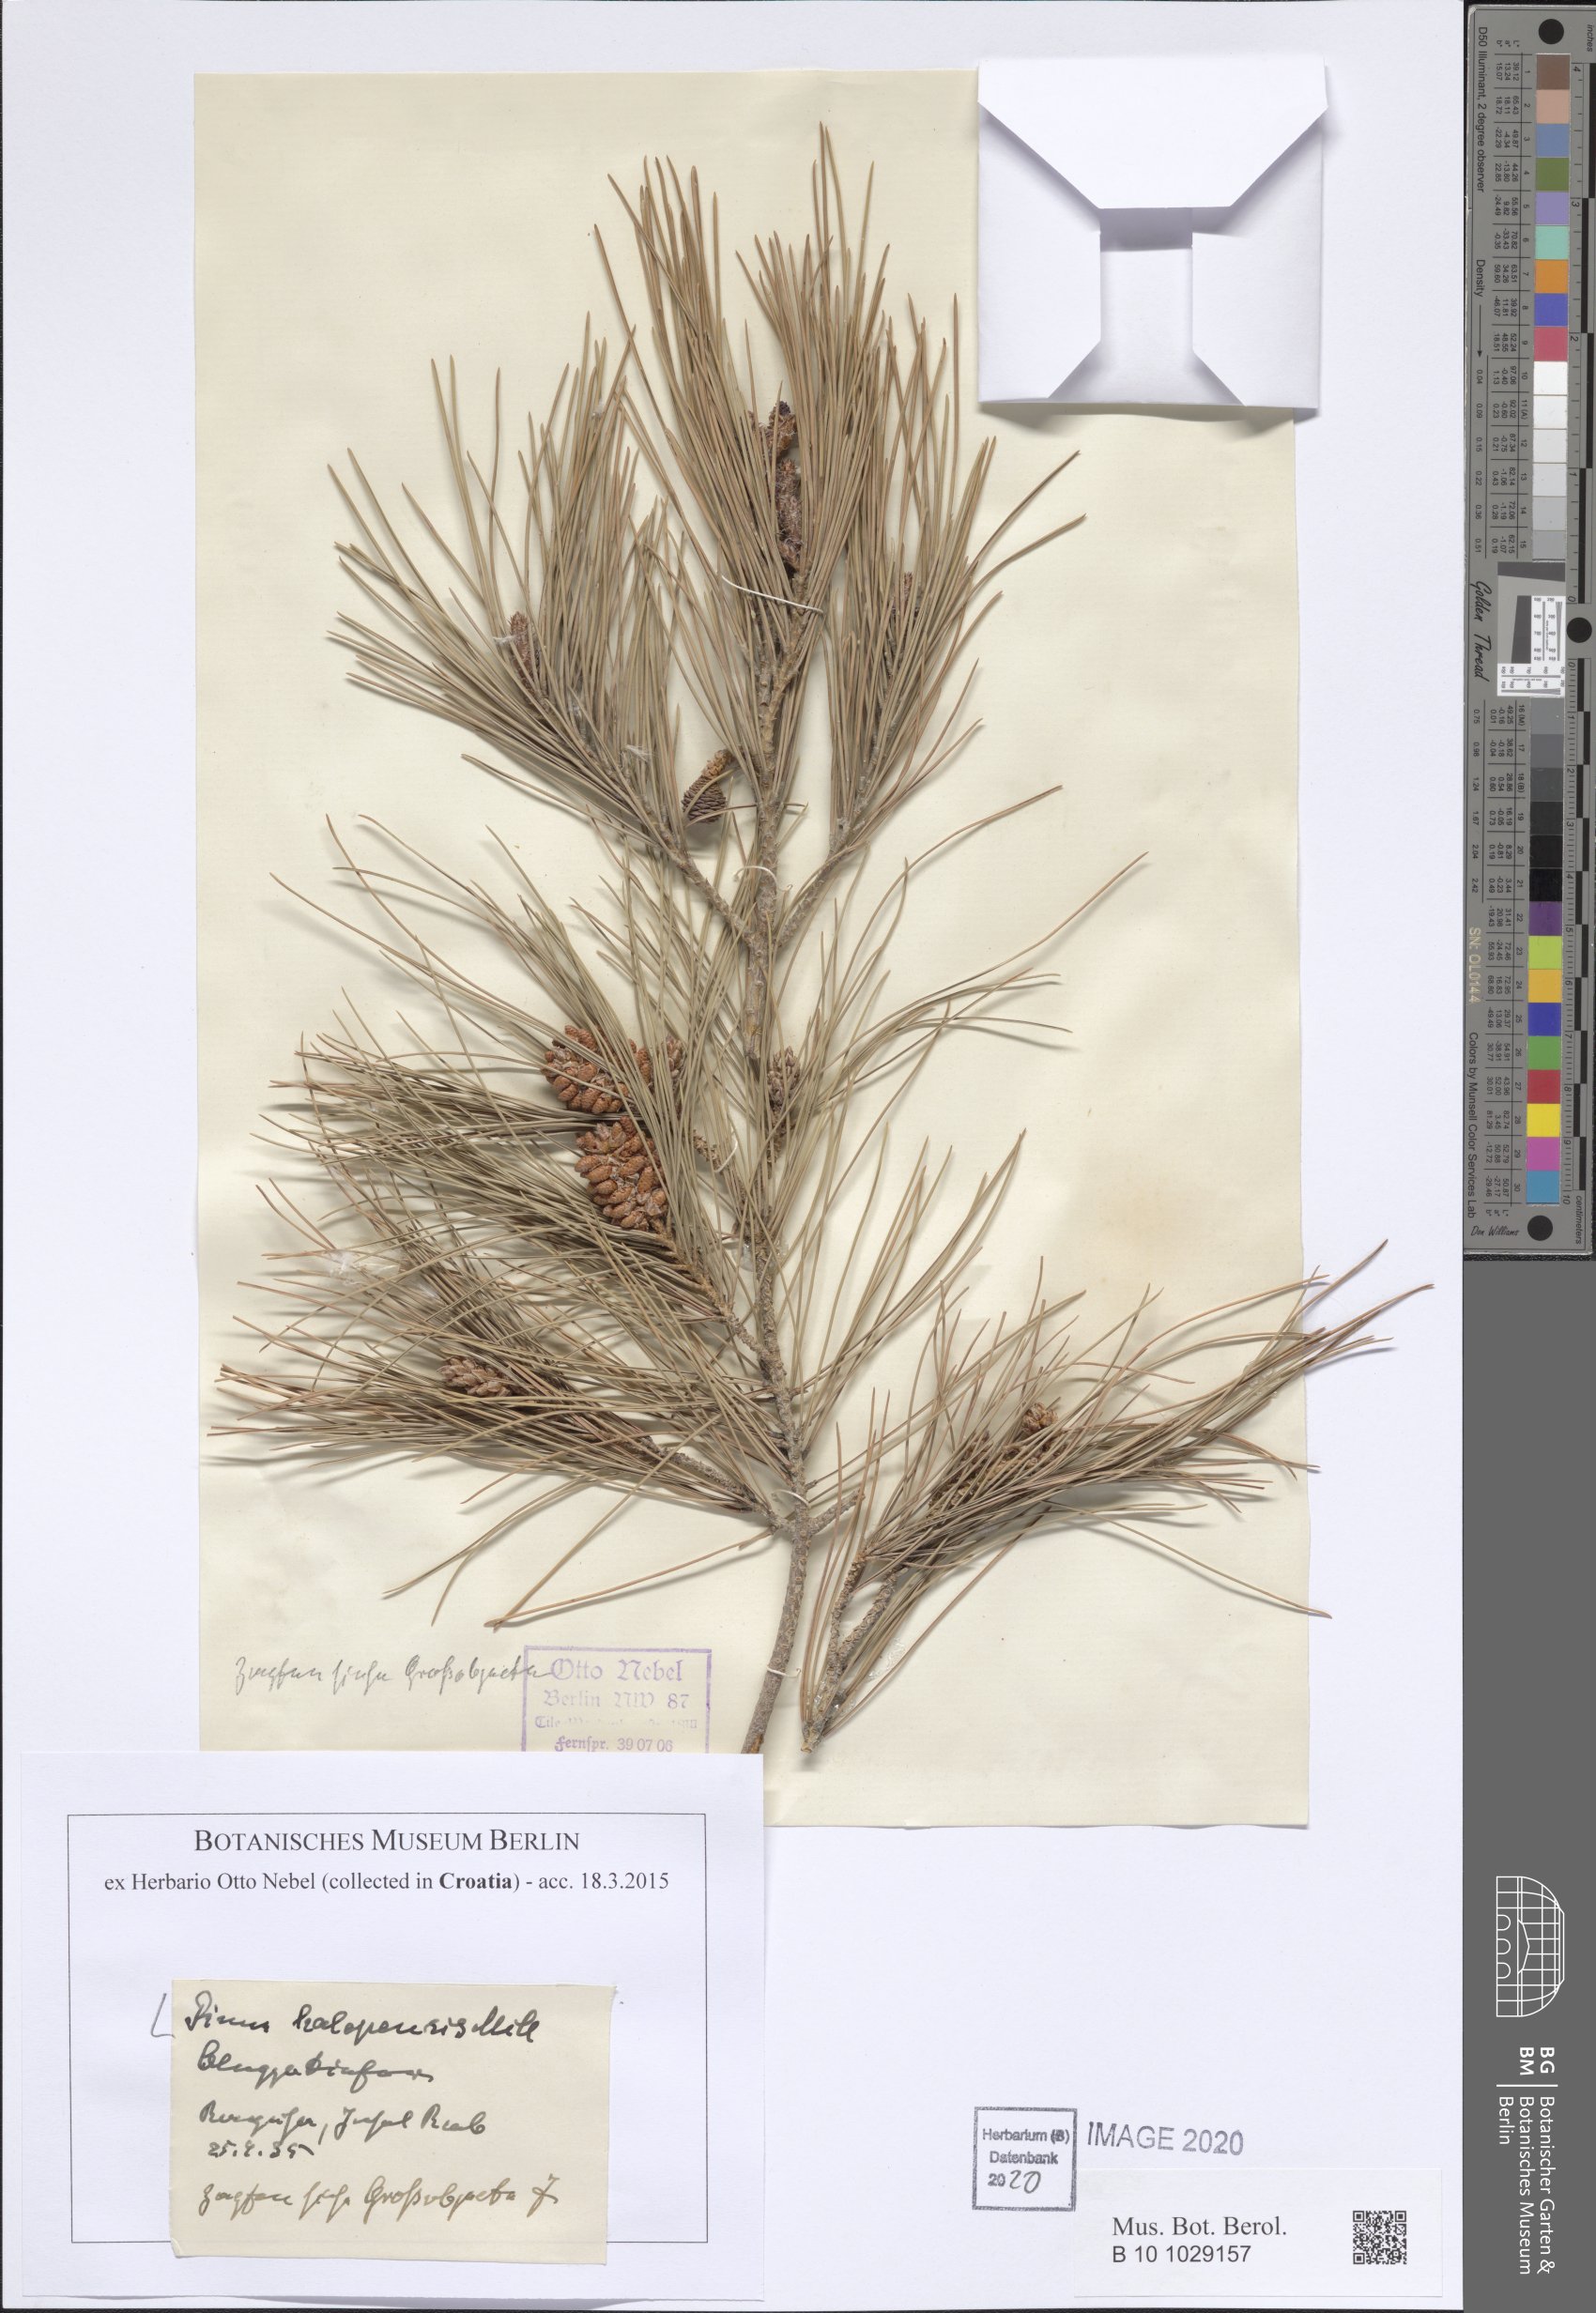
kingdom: Plantae
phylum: Tracheophyta
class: Pinopsida
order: Pinales
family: Pinaceae
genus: Pinus
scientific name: Pinus halepensis
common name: Aleppo pine
